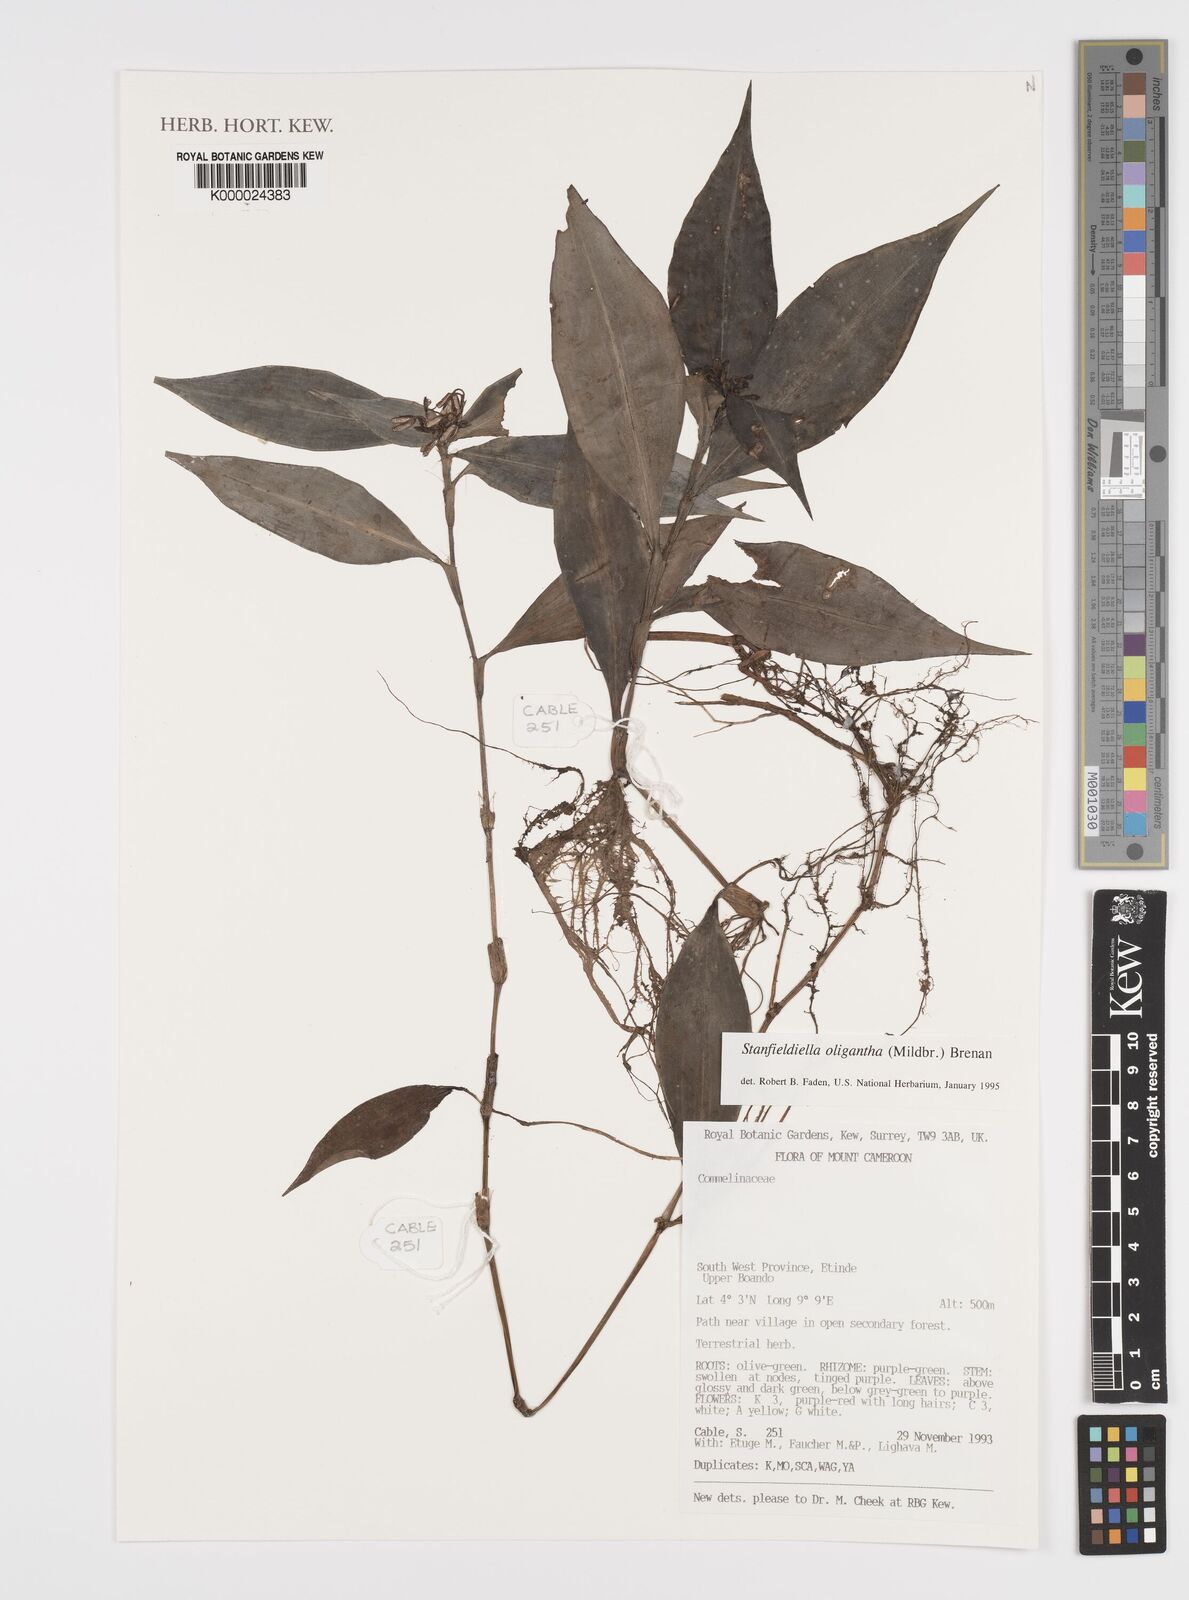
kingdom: Plantae
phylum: Tracheophyta
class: Liliopsida
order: Commelinales
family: Commelinaceae
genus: Stanfieldiella
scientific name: Stanfieldiella oligantha
